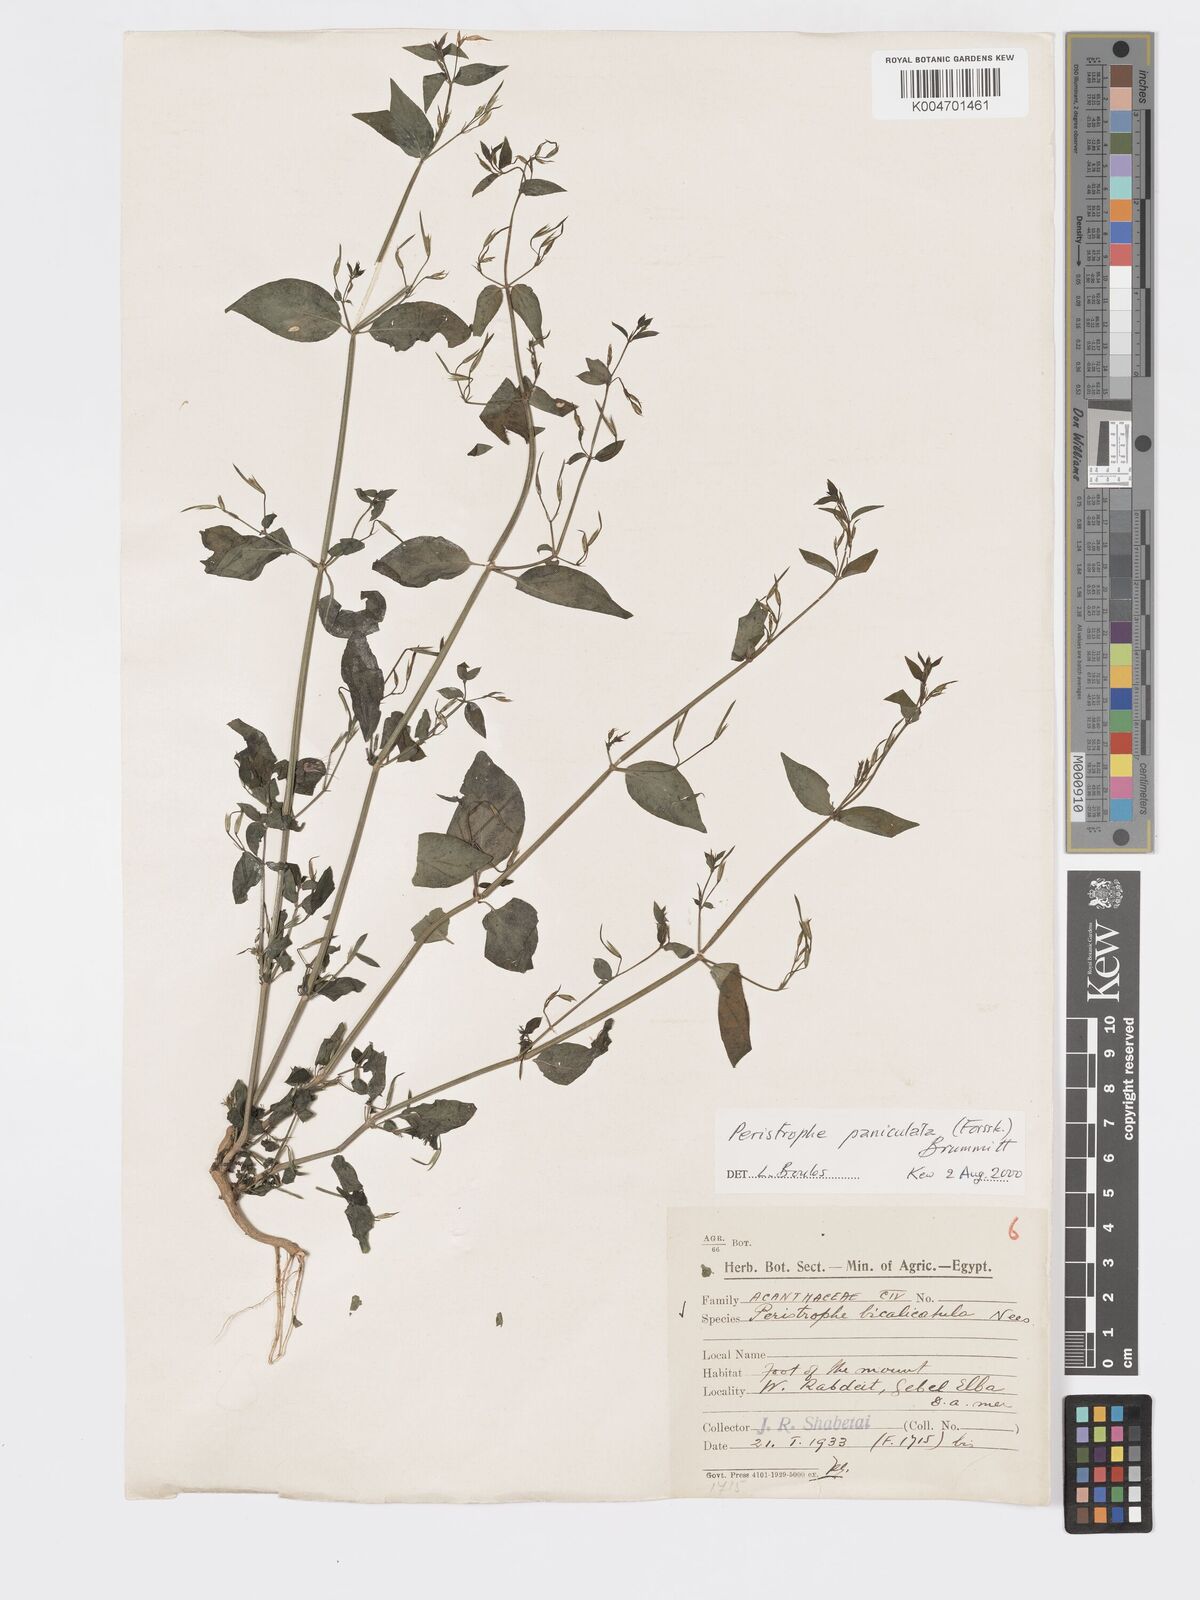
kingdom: Plantae
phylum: Tracheophyta
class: Magnoliopsida
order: Lamiales
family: Acanthaceae
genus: Dicliptera
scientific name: Dicliptera paniculata
